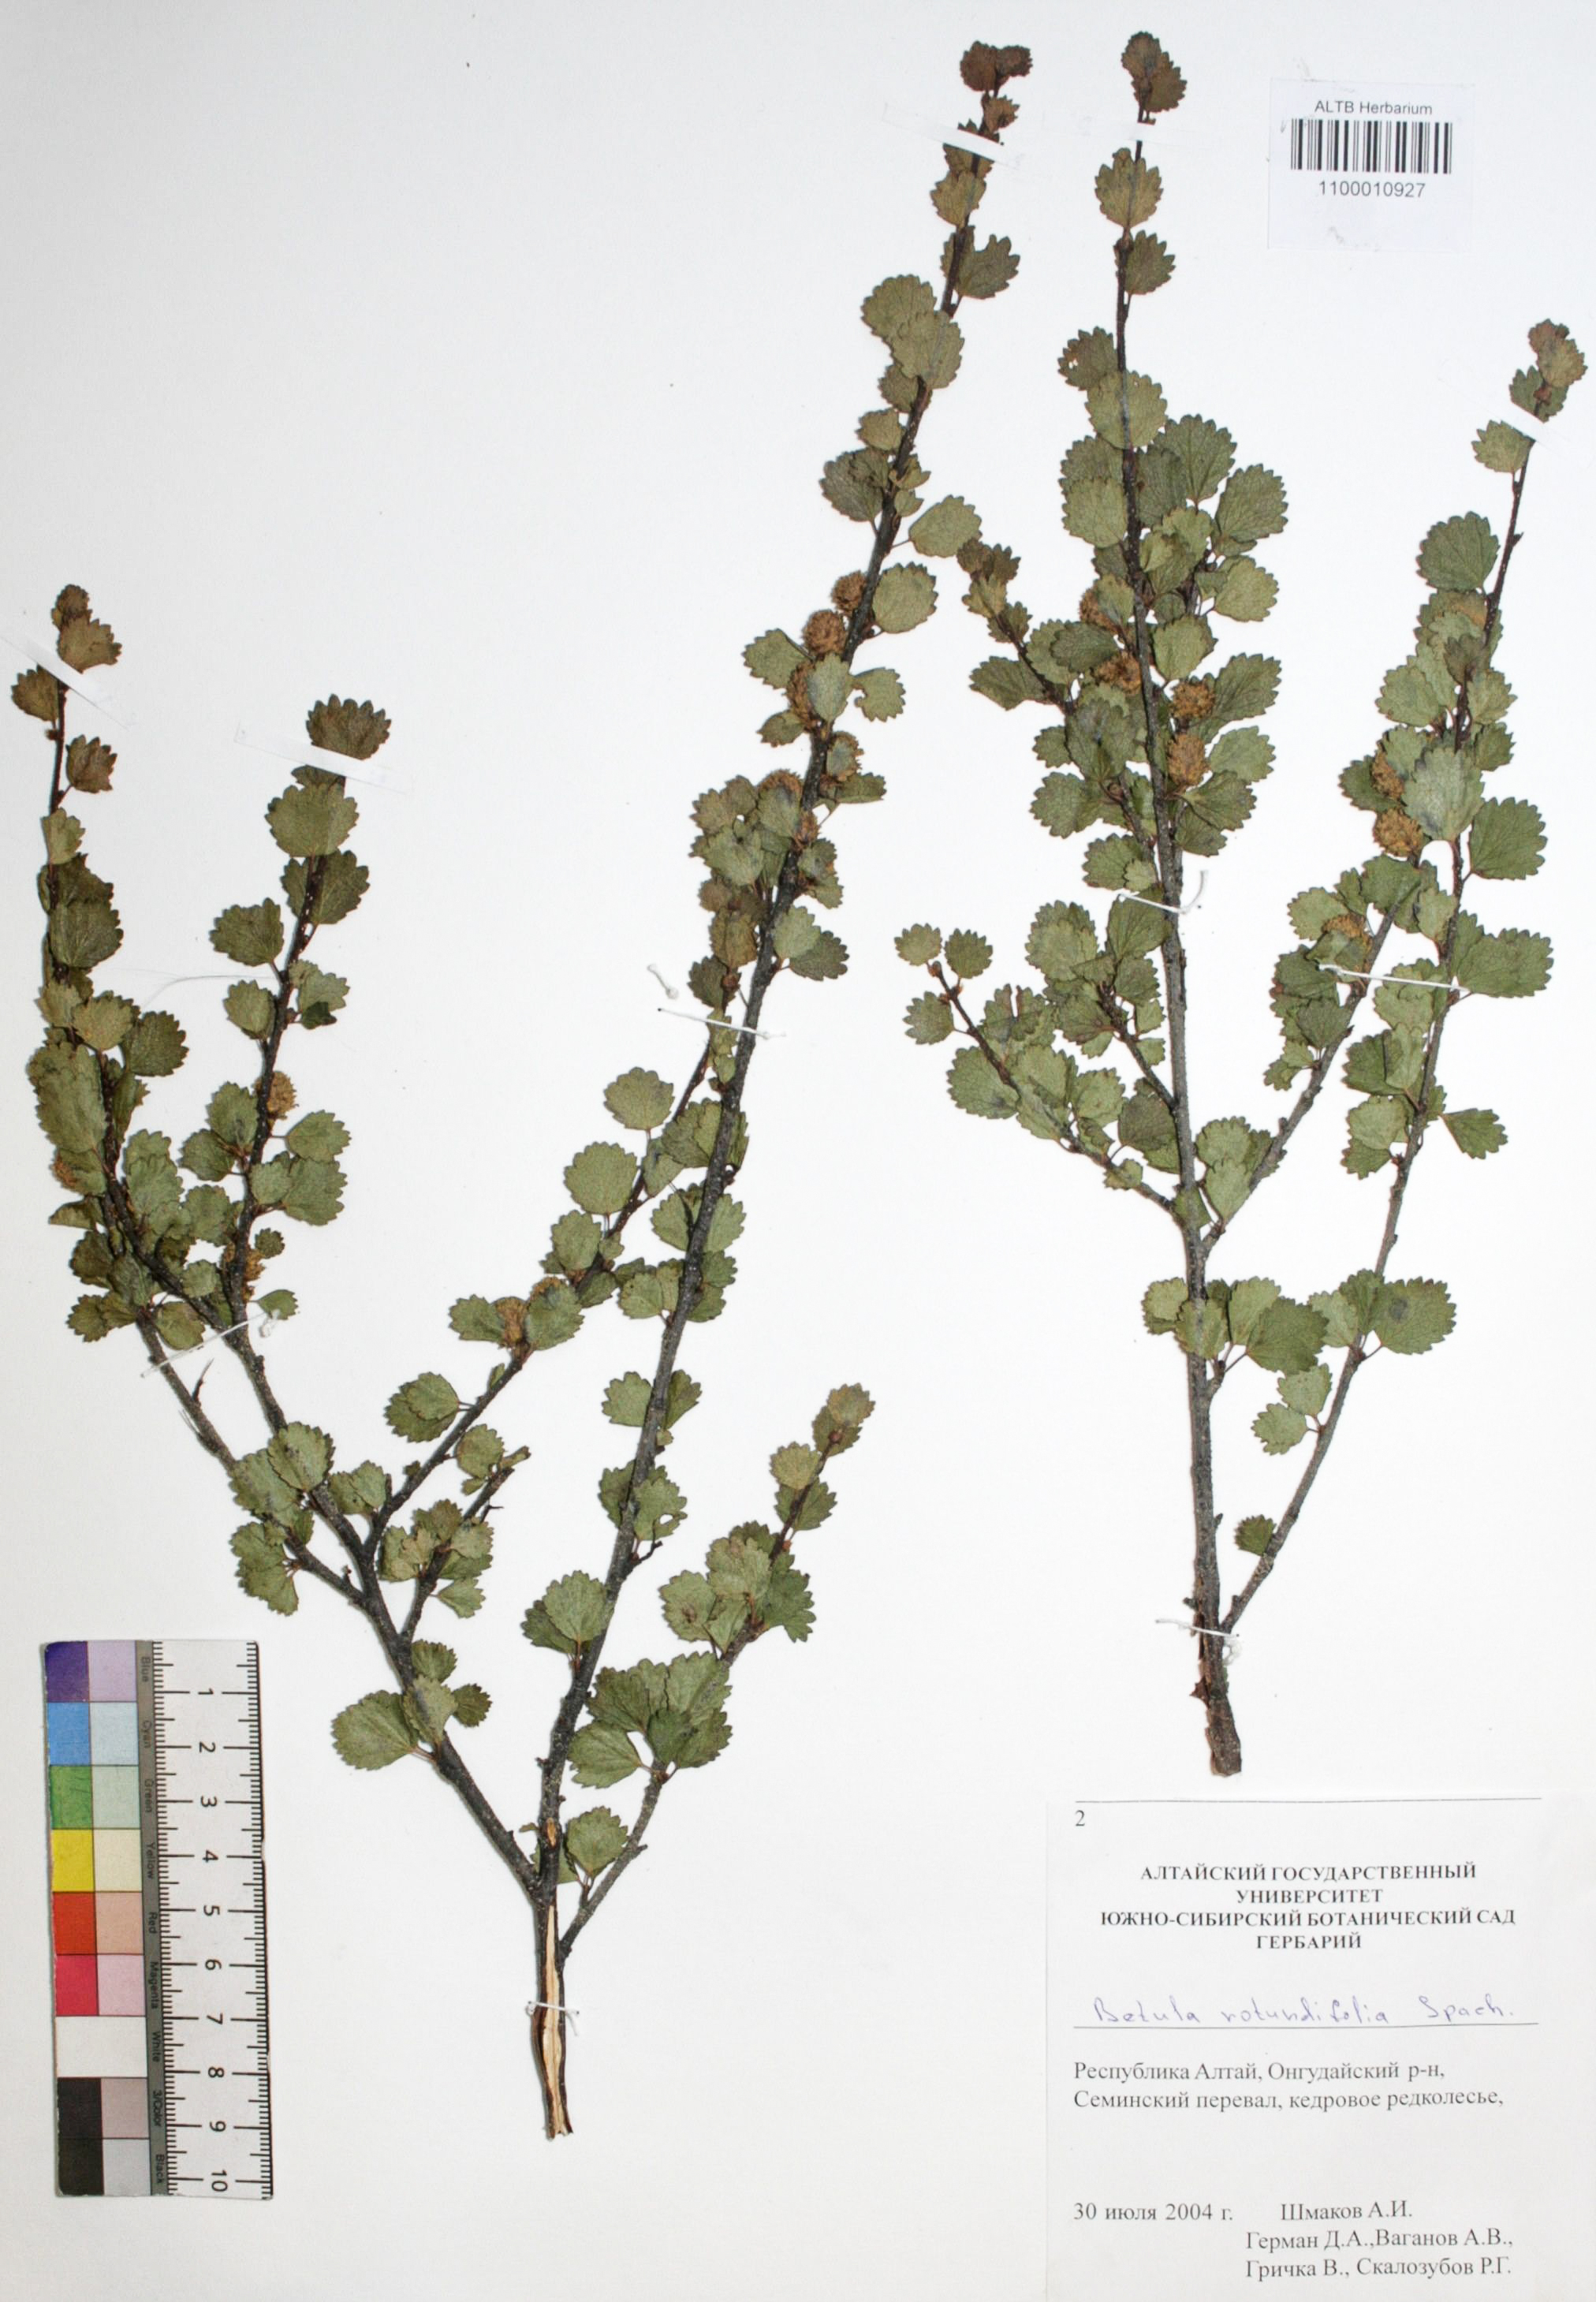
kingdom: Plantae
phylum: Tracheophyta
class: Magnoliopsida
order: Fagales
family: Betulaceae
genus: Betula
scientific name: Betula glandulosa
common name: Dwarf birch
